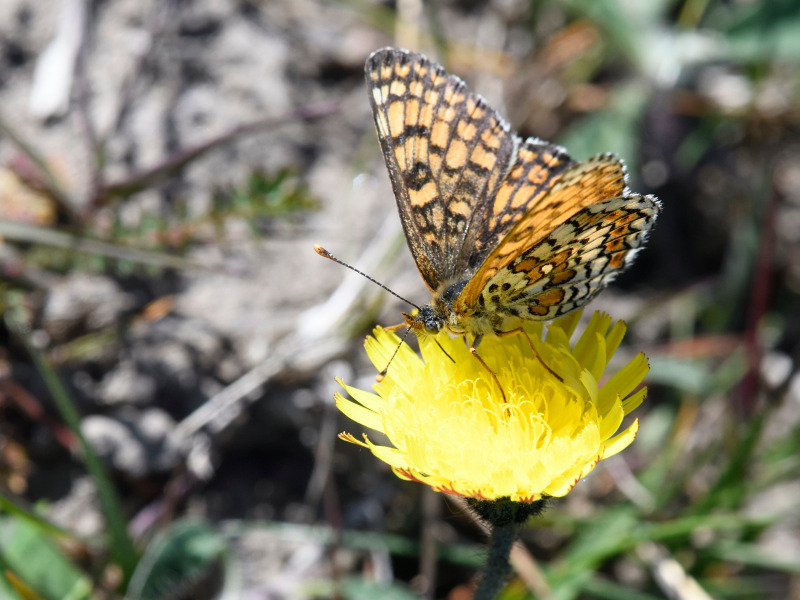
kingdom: Animalia
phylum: Arthropoda
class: Insecta
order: Lepidoptera
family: Nymphalidae
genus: Melitaea
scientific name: Melitaea cinxia
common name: Okkergul pletvinge
